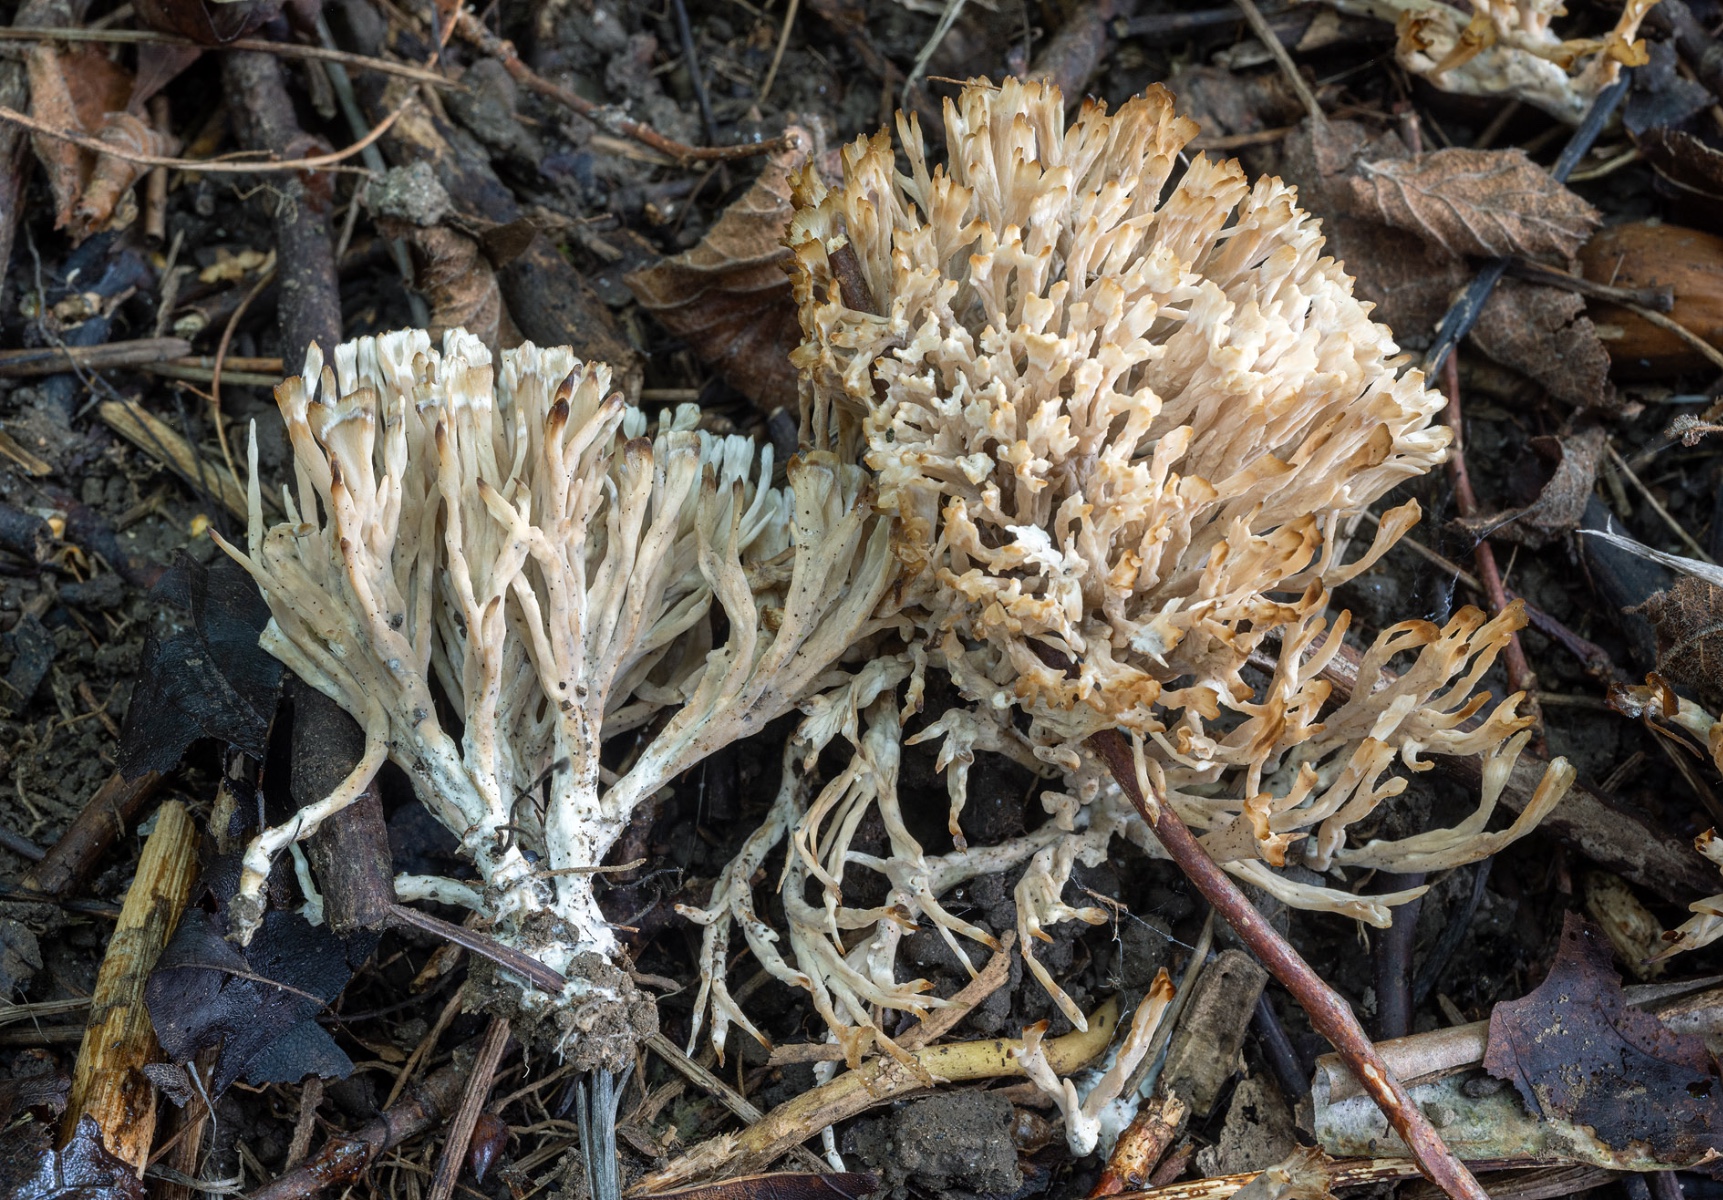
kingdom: Fungi
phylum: Basidiomycota
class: Agaricomycetes
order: Tremellodendropsidales
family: Tremellodendropsidaceae
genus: Tremellodendropsis
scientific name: Tremellodendropsis tuberosa
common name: bævrekølle
